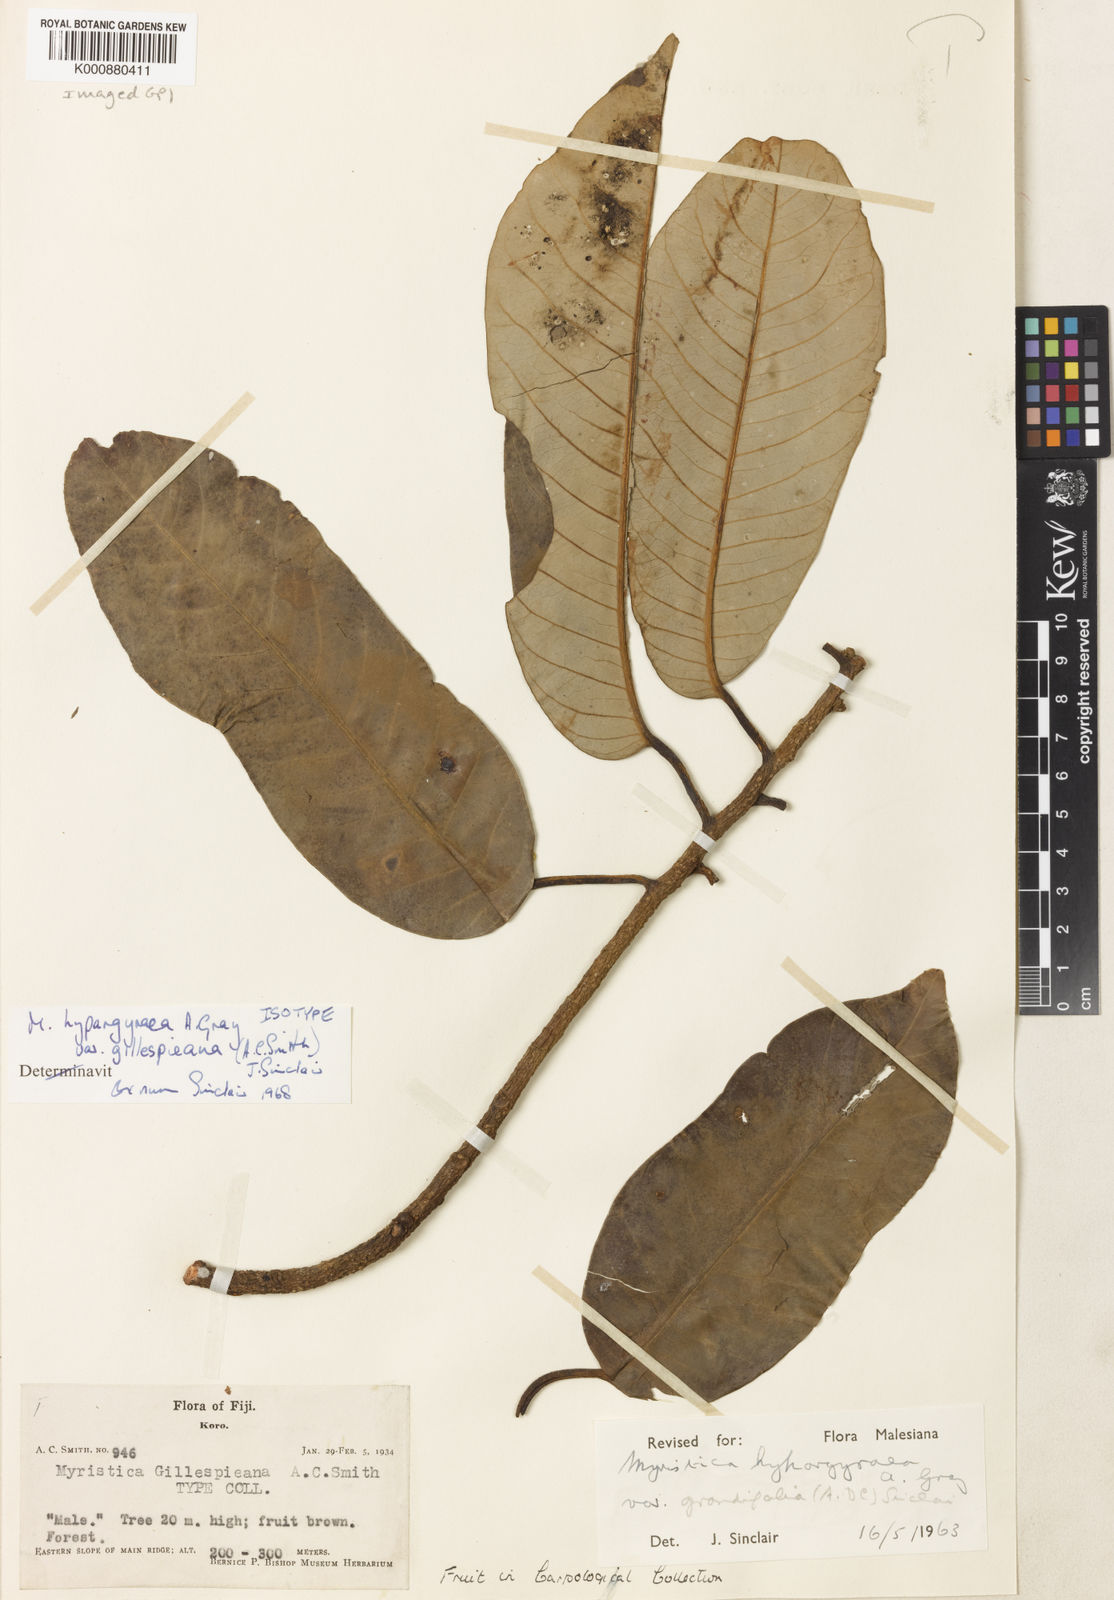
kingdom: Plantae
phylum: Tracheophyta
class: Magnoliopsida
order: Magnoliales
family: Myristicaceae
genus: Myristica
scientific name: Myristica hypargyraea
